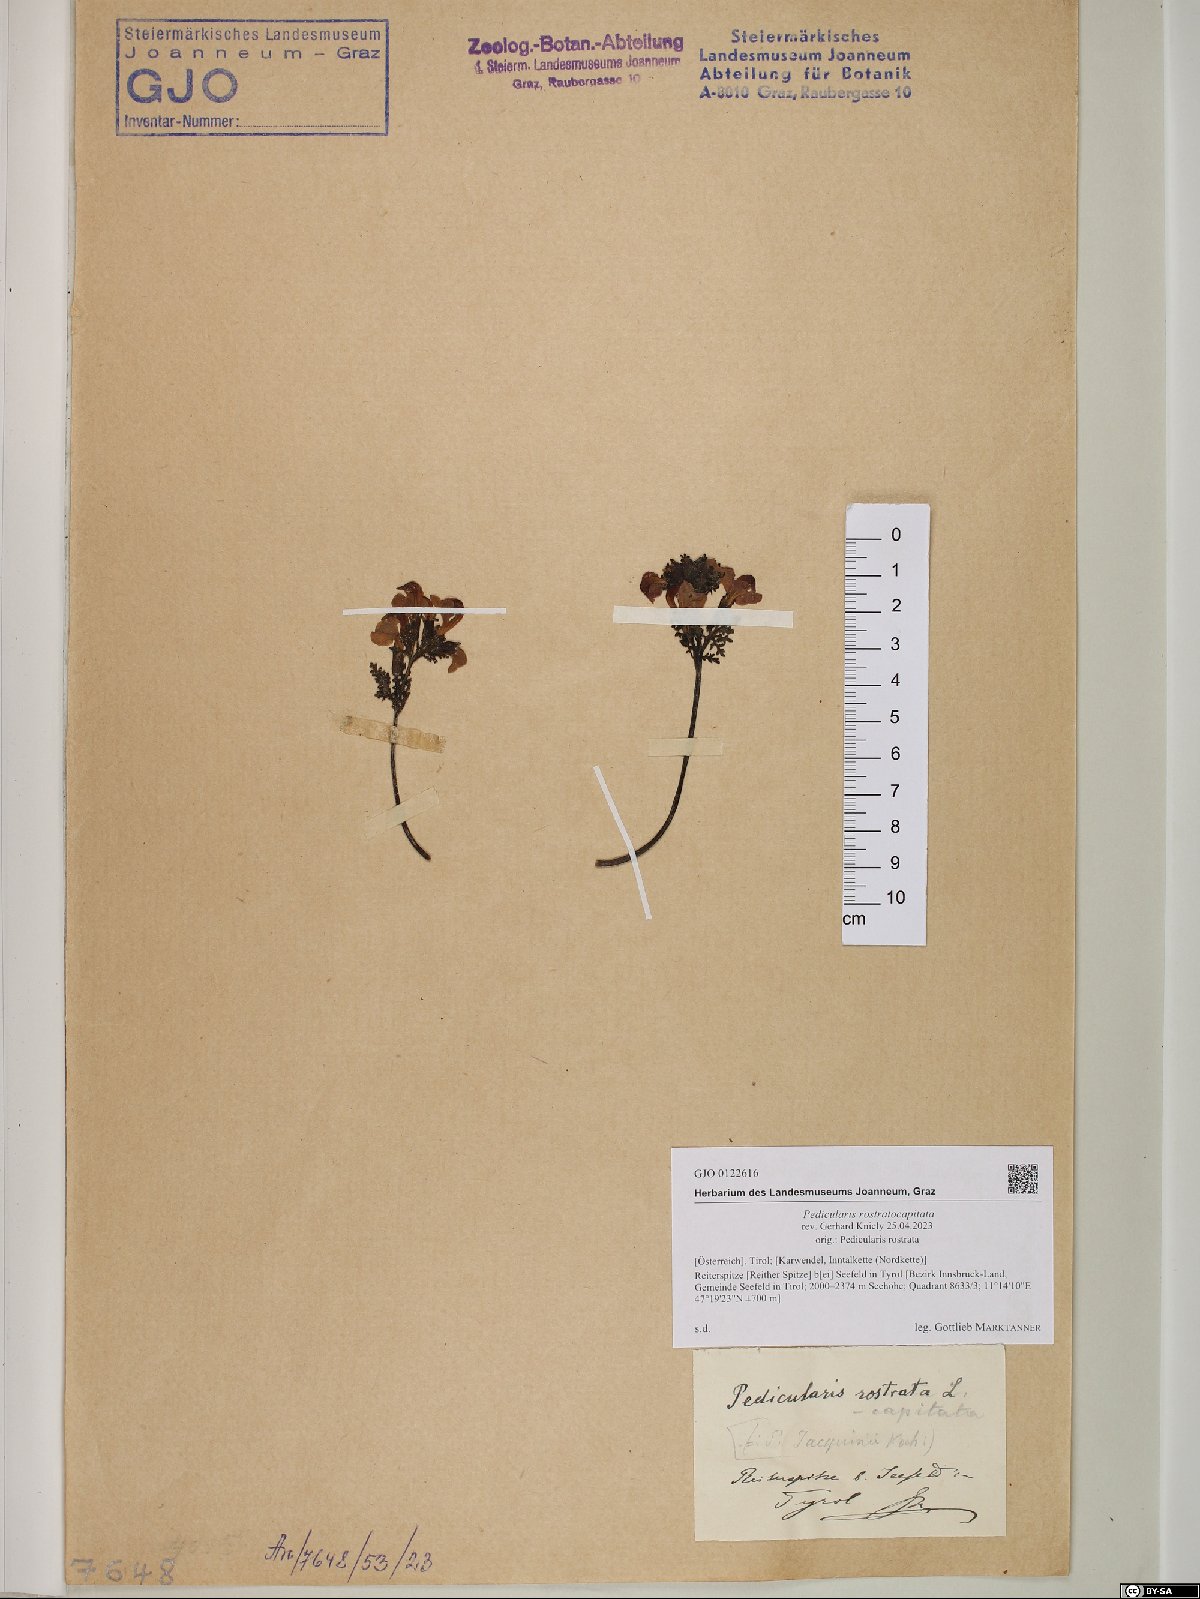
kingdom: Plantae
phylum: Tracheophyta
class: Magnoliopsida
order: Lamiales
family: Orobanchaceae
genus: Pedicularis
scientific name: Pedicularis rostratocapitata
